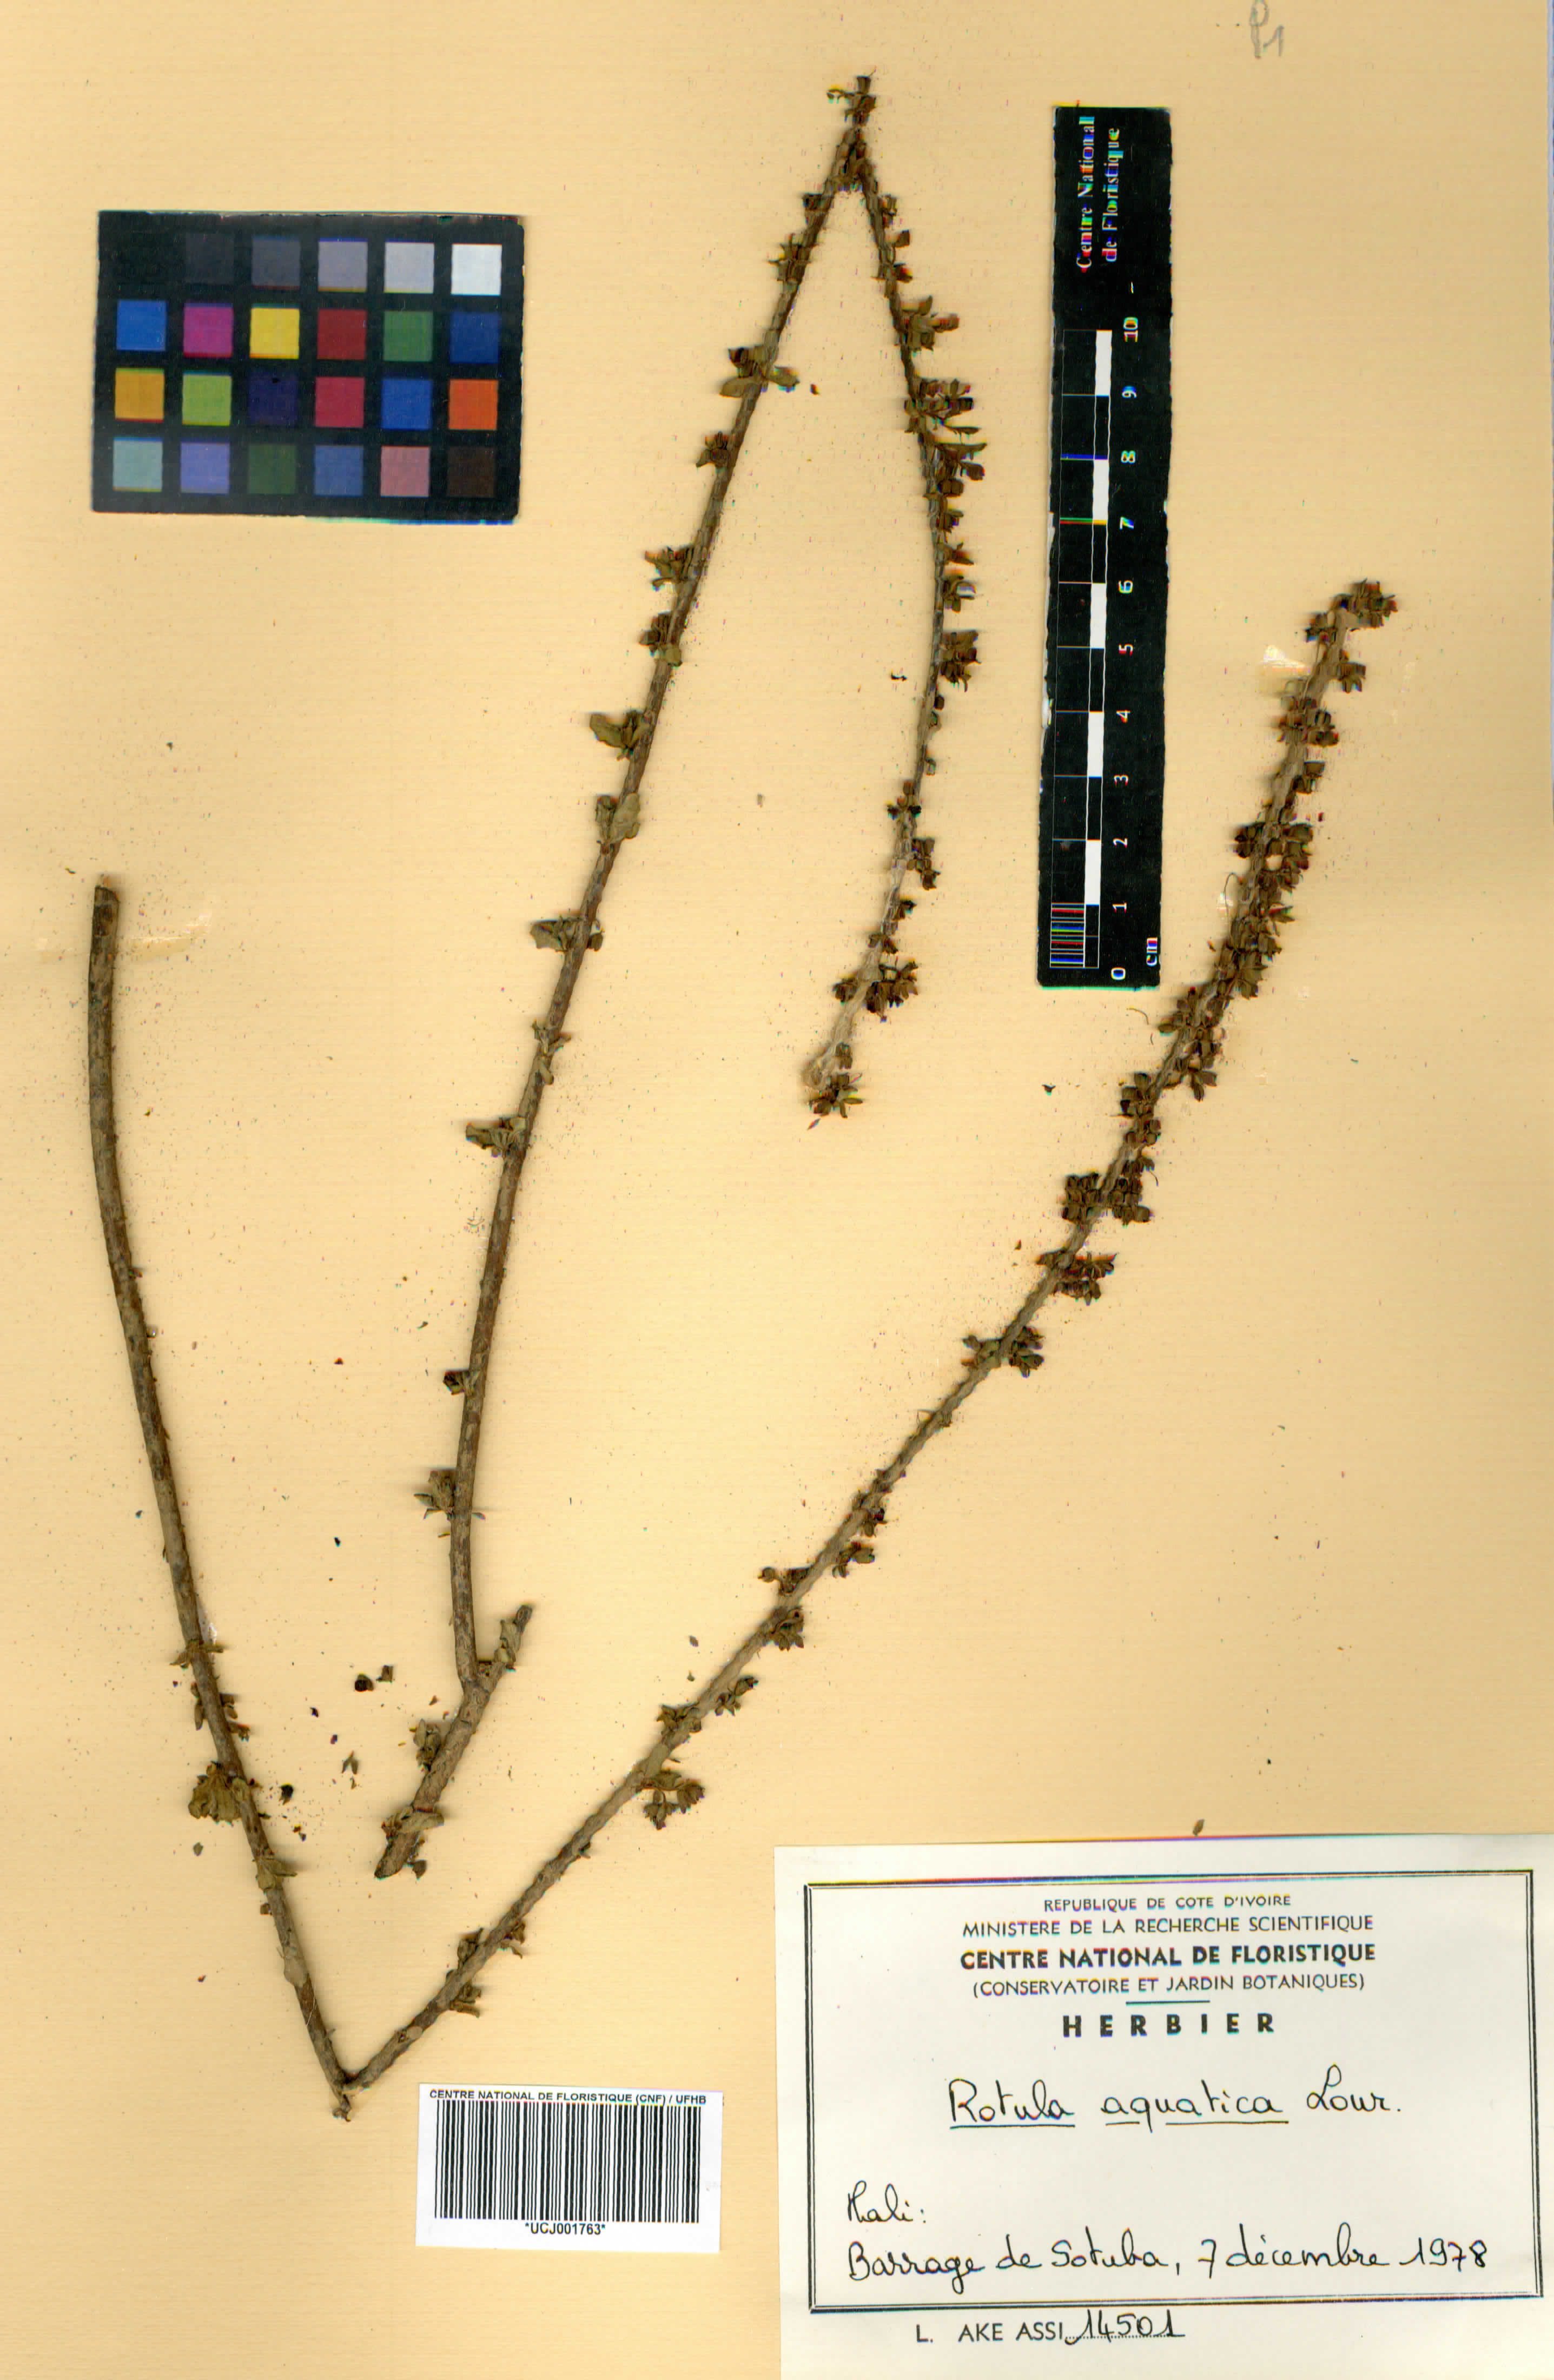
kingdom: Plantae
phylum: Tracheophyta
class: Magnoliopsida
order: Boraginales
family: Ehretiaceae
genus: Ehretia
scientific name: Ehretia aquatica
